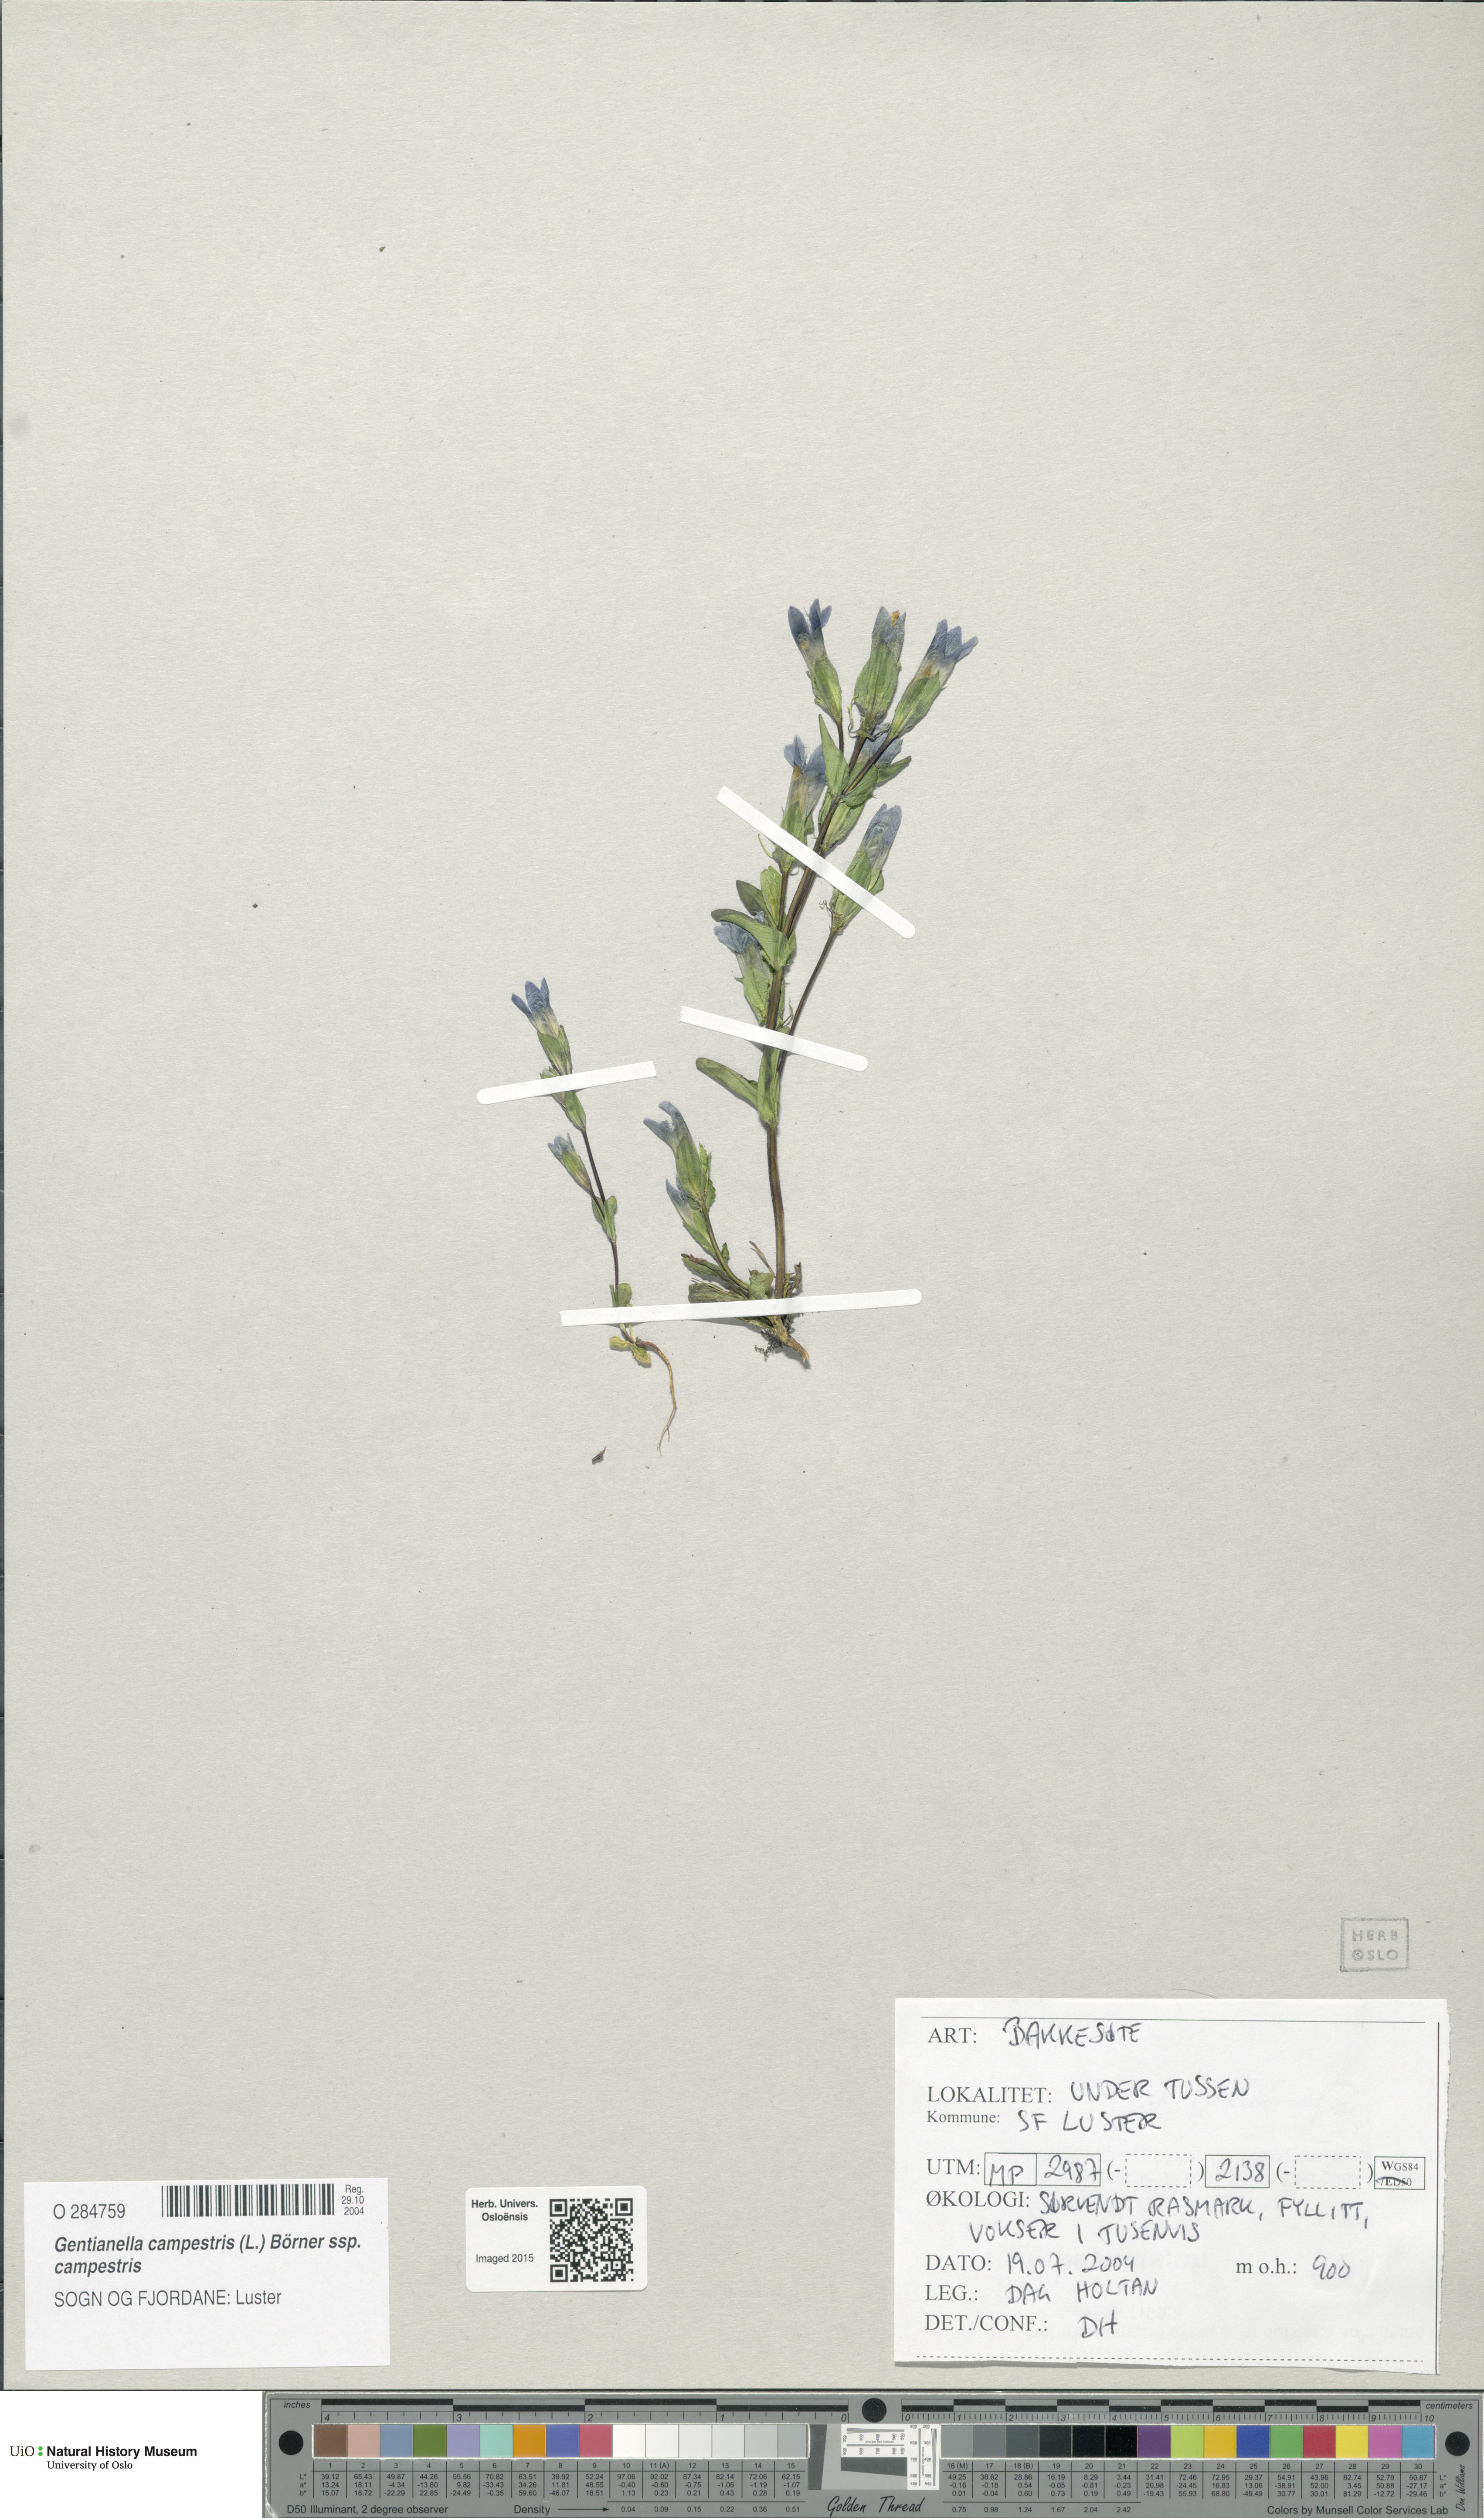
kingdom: Plantae
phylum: Tracheophyta
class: Magnoliopsida
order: Gentianales
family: Gentianaceae
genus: Gentianella
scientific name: Gentianella campestris
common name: Field gentian
